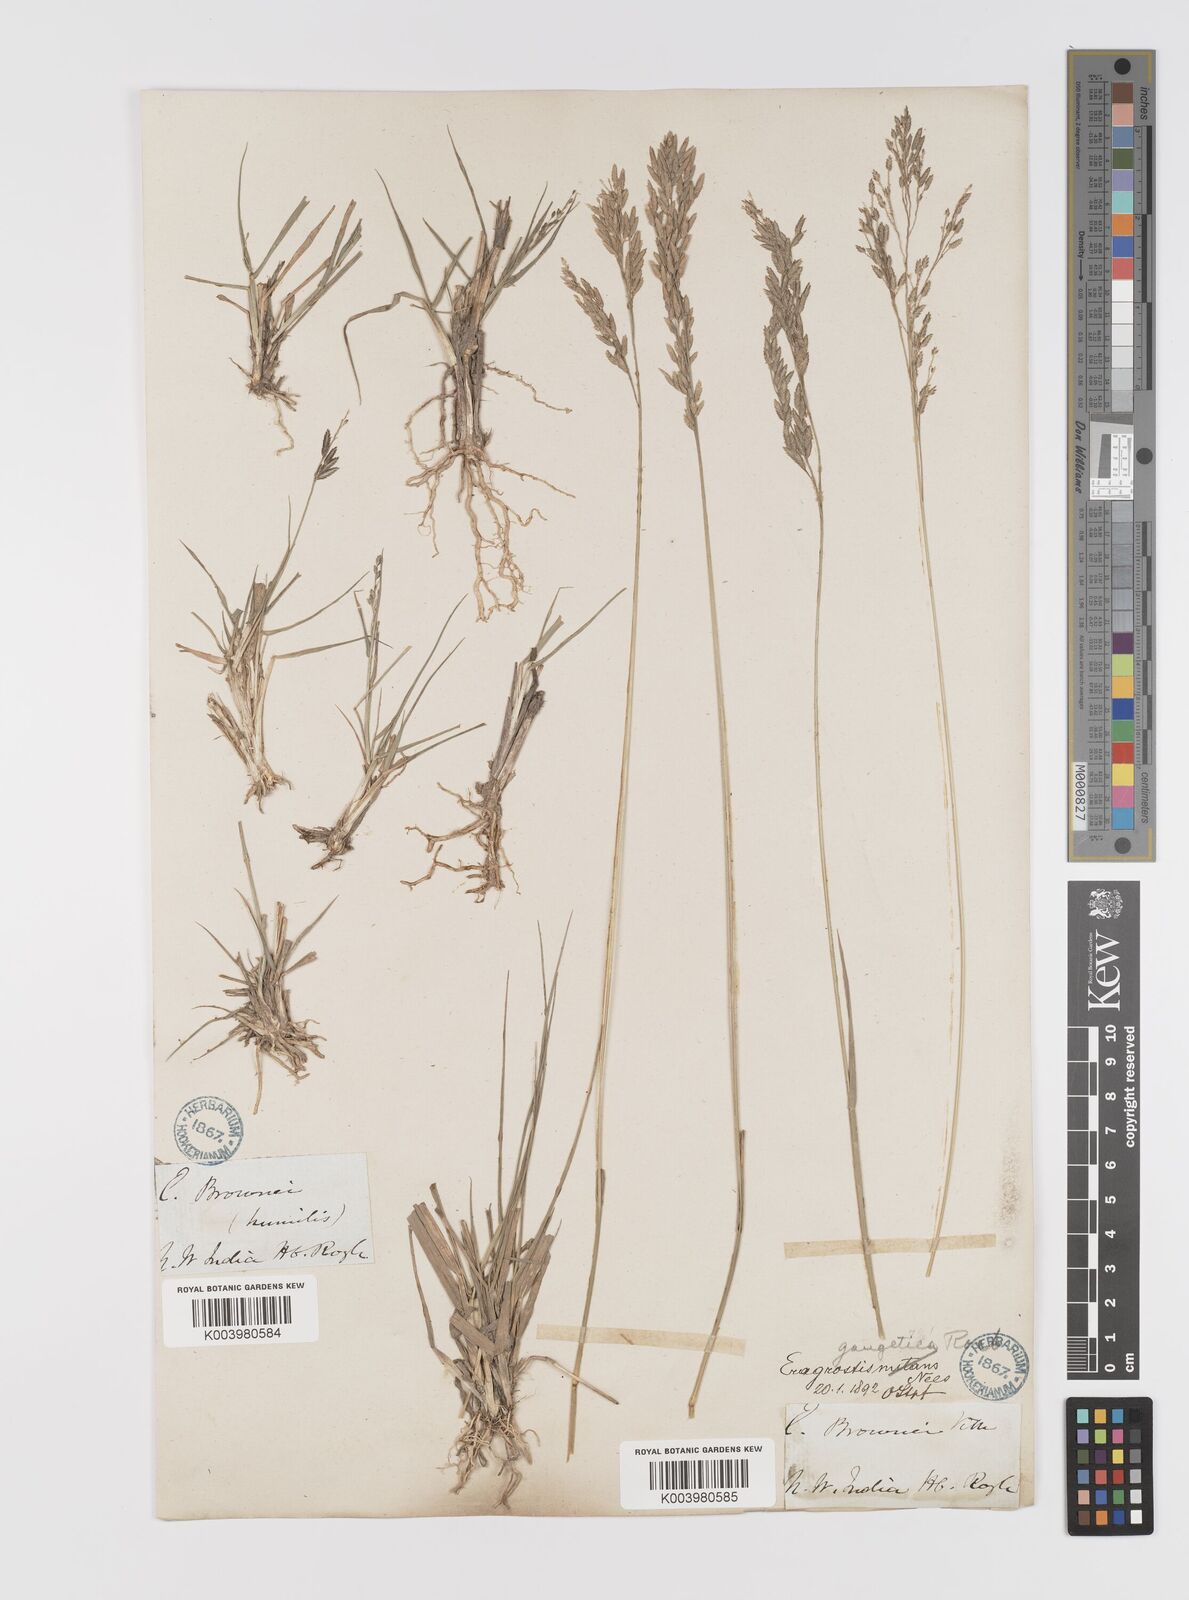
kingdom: Plantae
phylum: Tracheophyta
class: Liliopsida
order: Poales
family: Poaceae
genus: Eragrostis
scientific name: Eragrostis atrovirens
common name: Thalia lovegrass
